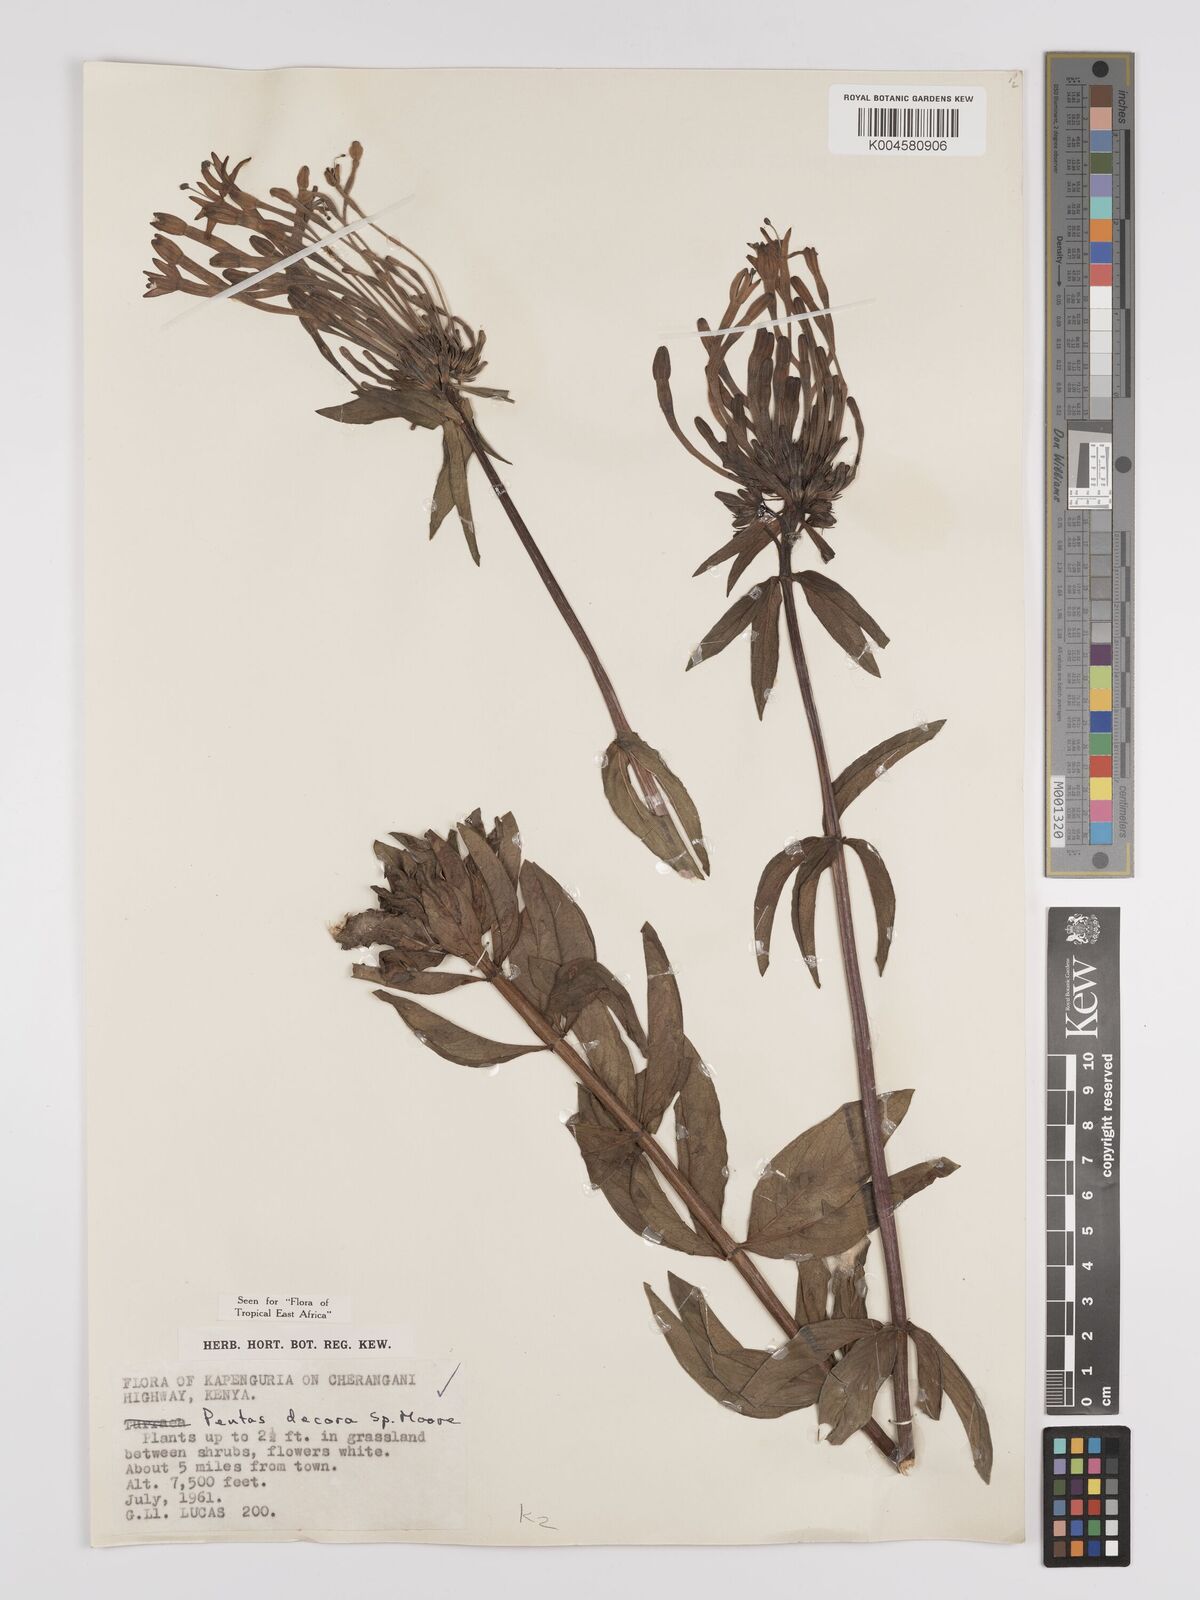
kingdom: Plantae
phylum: Tracheophyta
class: Magnoliopsida
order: Gentianales
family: Rubiaceae
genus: Dolichopentas
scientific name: Dolichopentas decora
